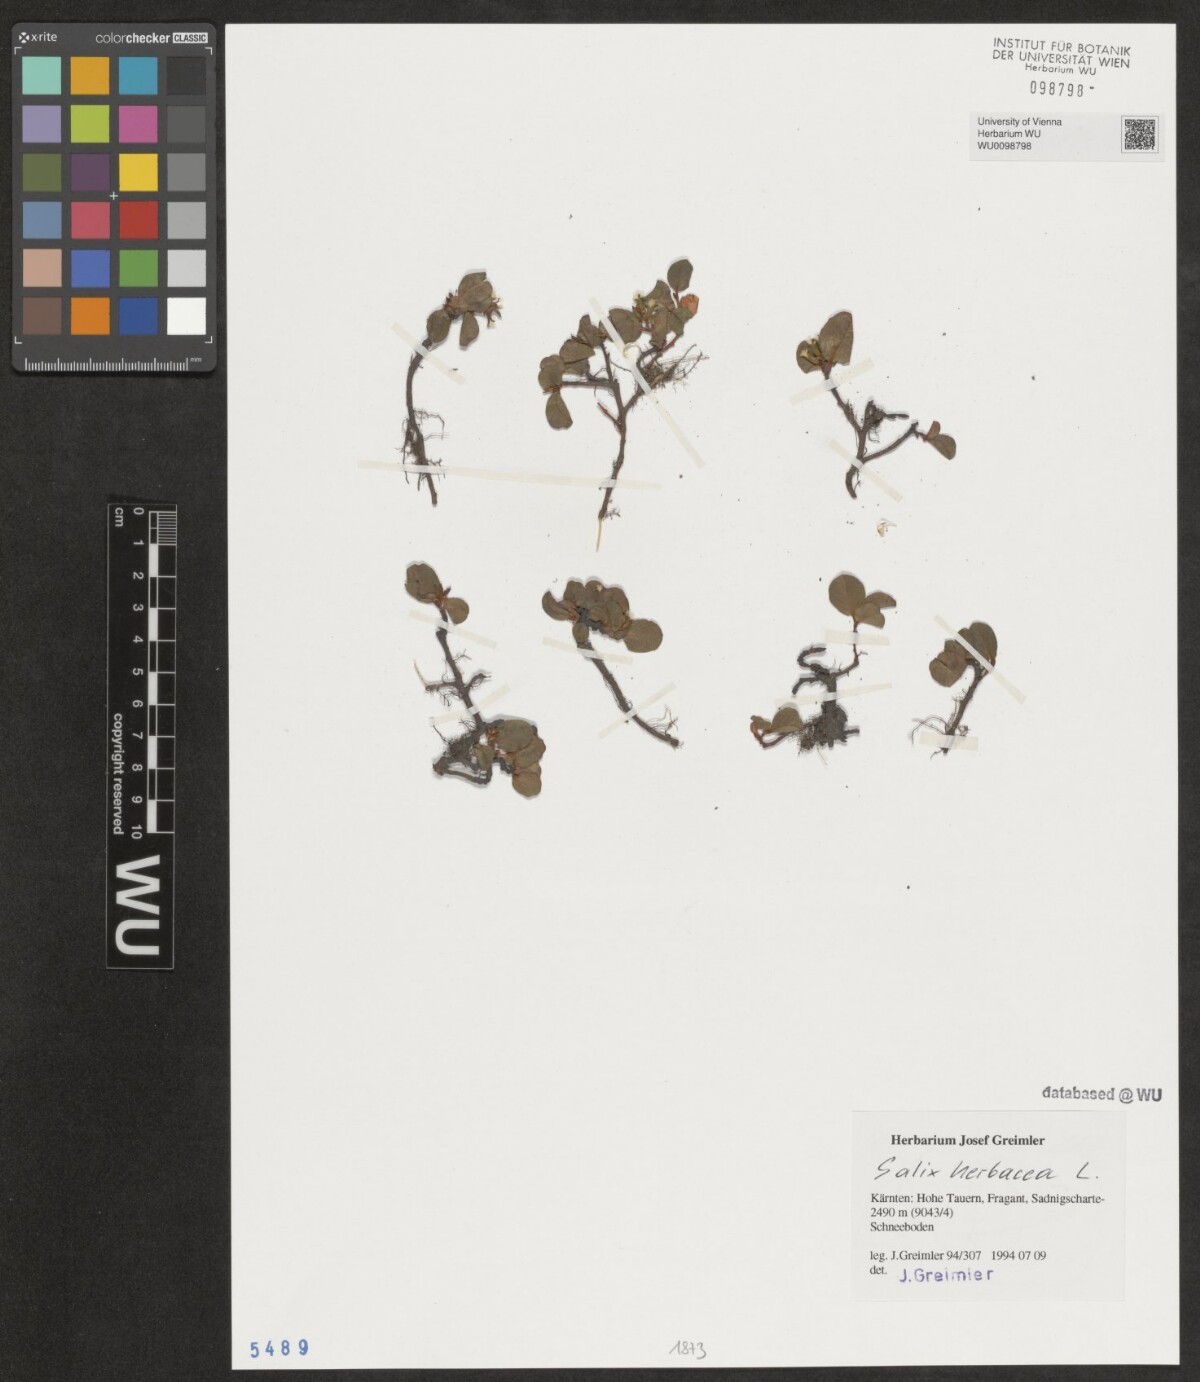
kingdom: Plantae
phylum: Tracheophyta
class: Magnoliopsida
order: Malpighiales
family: Salicaceae
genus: Salix
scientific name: Salix herbacea
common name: Dwarf willow
